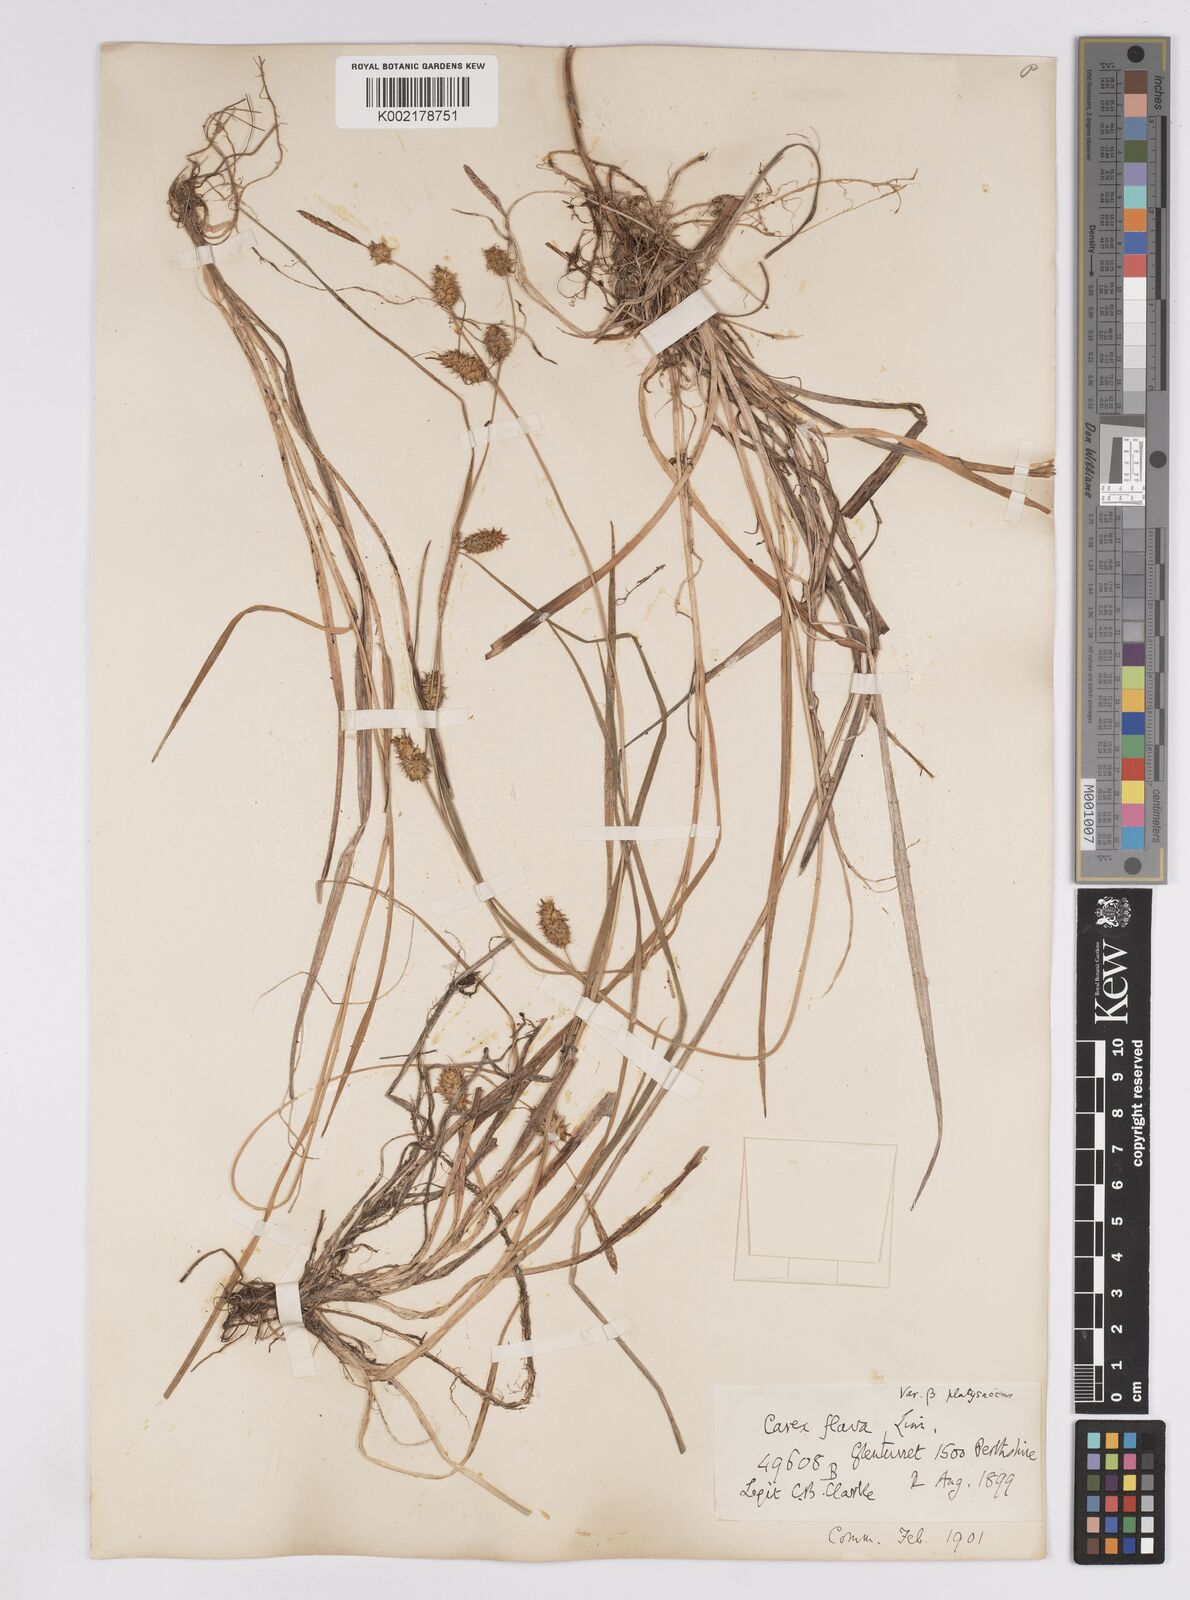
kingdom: Plantae
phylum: Tracheophyta
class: Liliopsida
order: Poales
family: Cyperaceae
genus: Carex
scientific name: Carex lepidocarpa
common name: Long-stalked yellow-sedge
